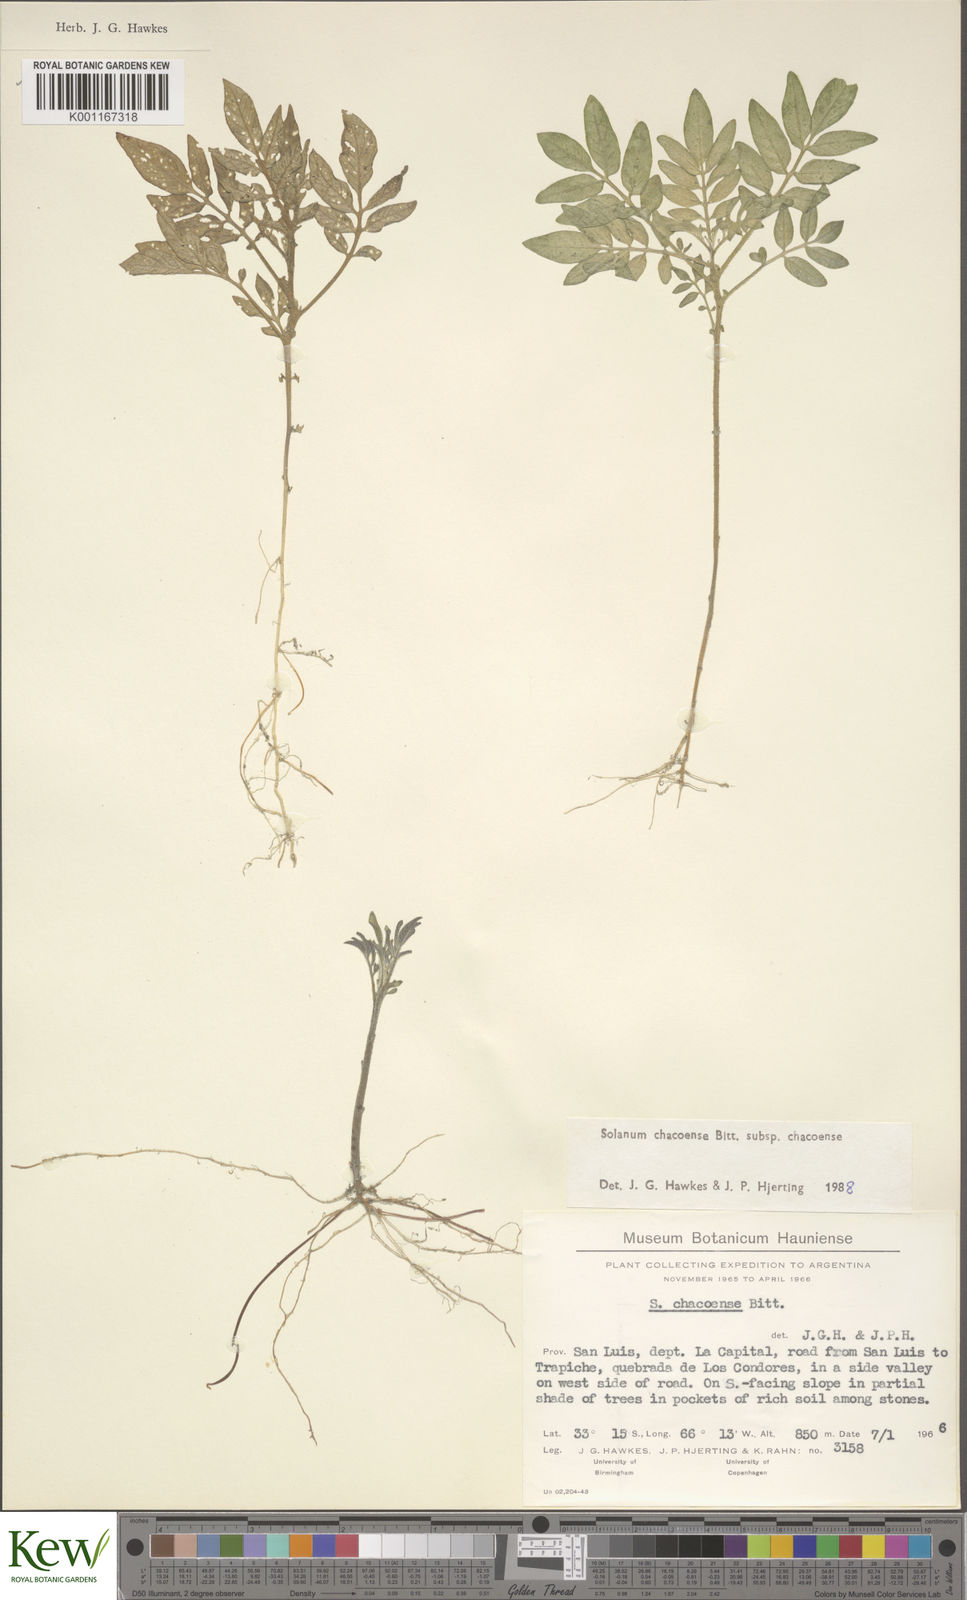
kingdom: Plantae
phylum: Tracheophyta
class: Magnoliopsida
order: Solanales
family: Solanaceae
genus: Solanum
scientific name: Solanum chacoense
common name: Chaco potato
